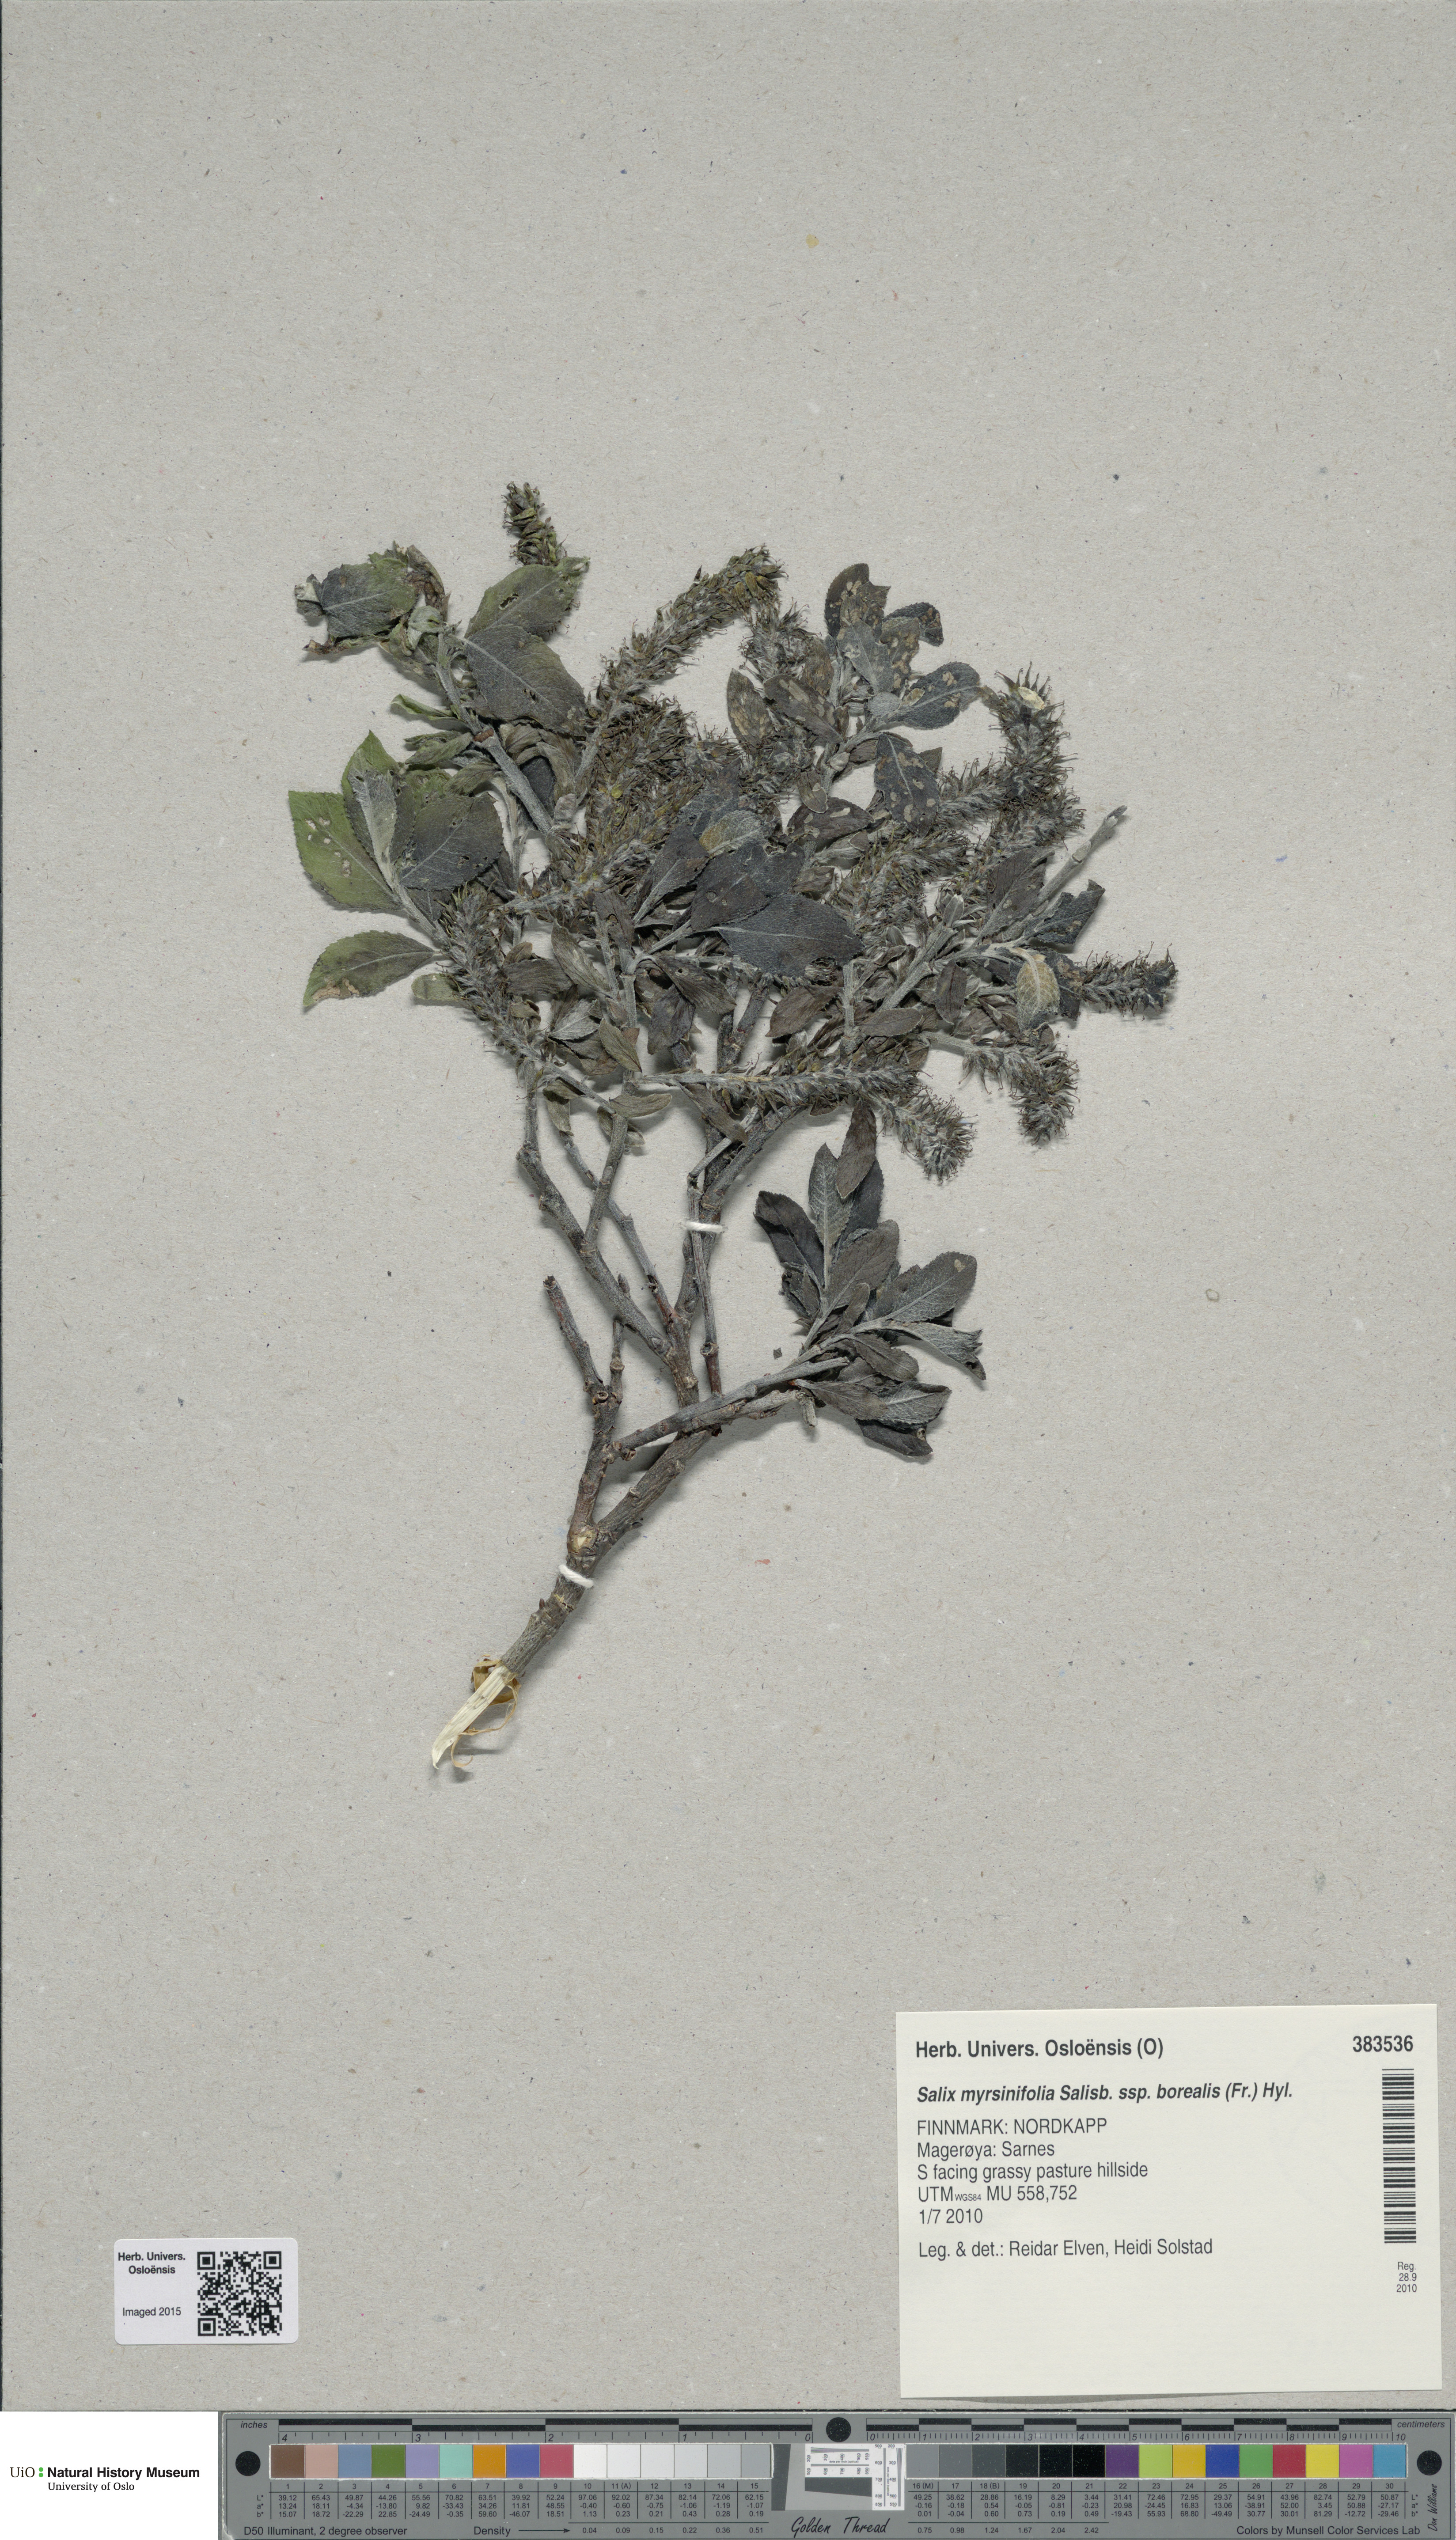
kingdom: Plantae
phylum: Tracheophyta
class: Magnoliopsida
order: Malpighiales
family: Salicaceae
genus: Salix
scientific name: Salix myrsinifolia
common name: Dark-leaved willow
